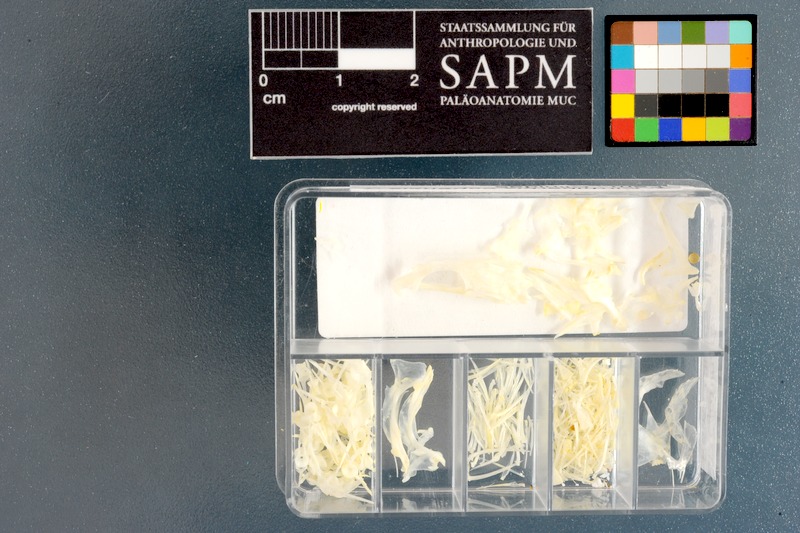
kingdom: Animalia
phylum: Chordata
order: Perciformes
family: Clinidae
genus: Cirrhibarbis
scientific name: Cirrhibarbis capensis
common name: Barbelled klipfish
